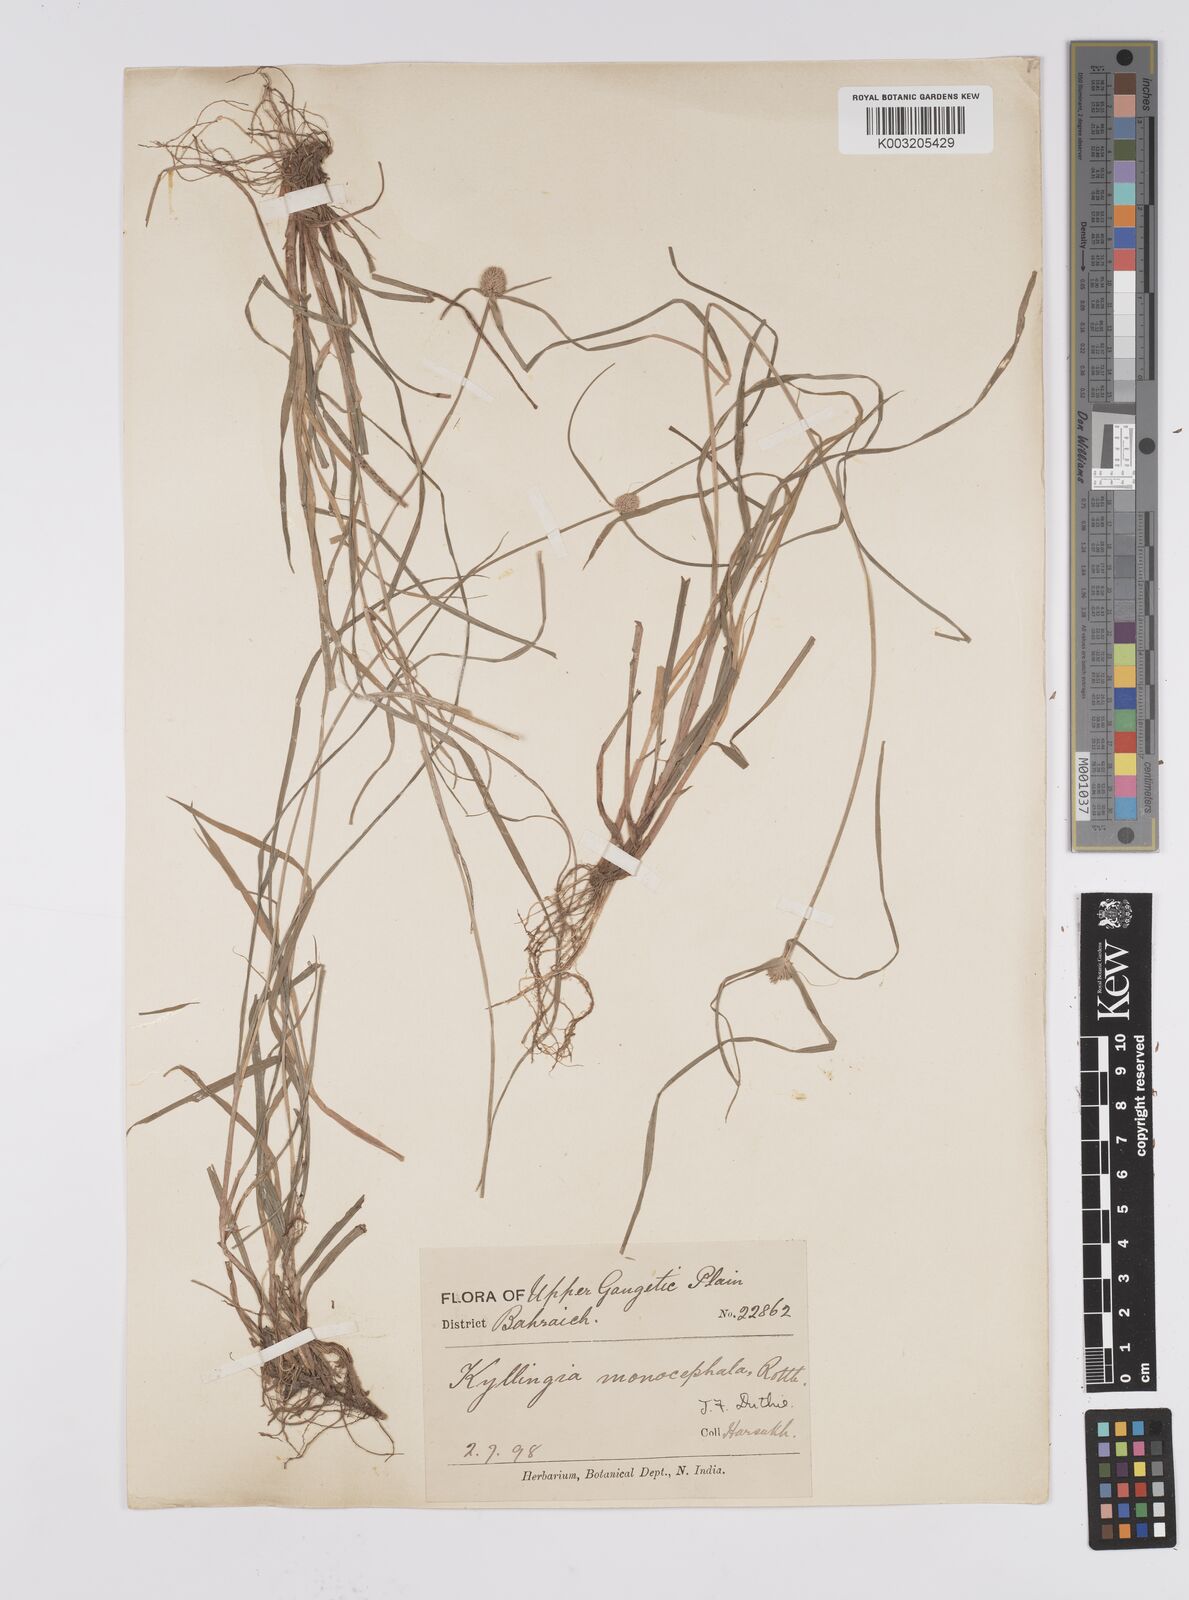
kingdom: Plantae
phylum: Tracheophyta
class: Liliopsida
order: Poales
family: Cyperaceae
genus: Cyperus
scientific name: Cyperus nemoralis
